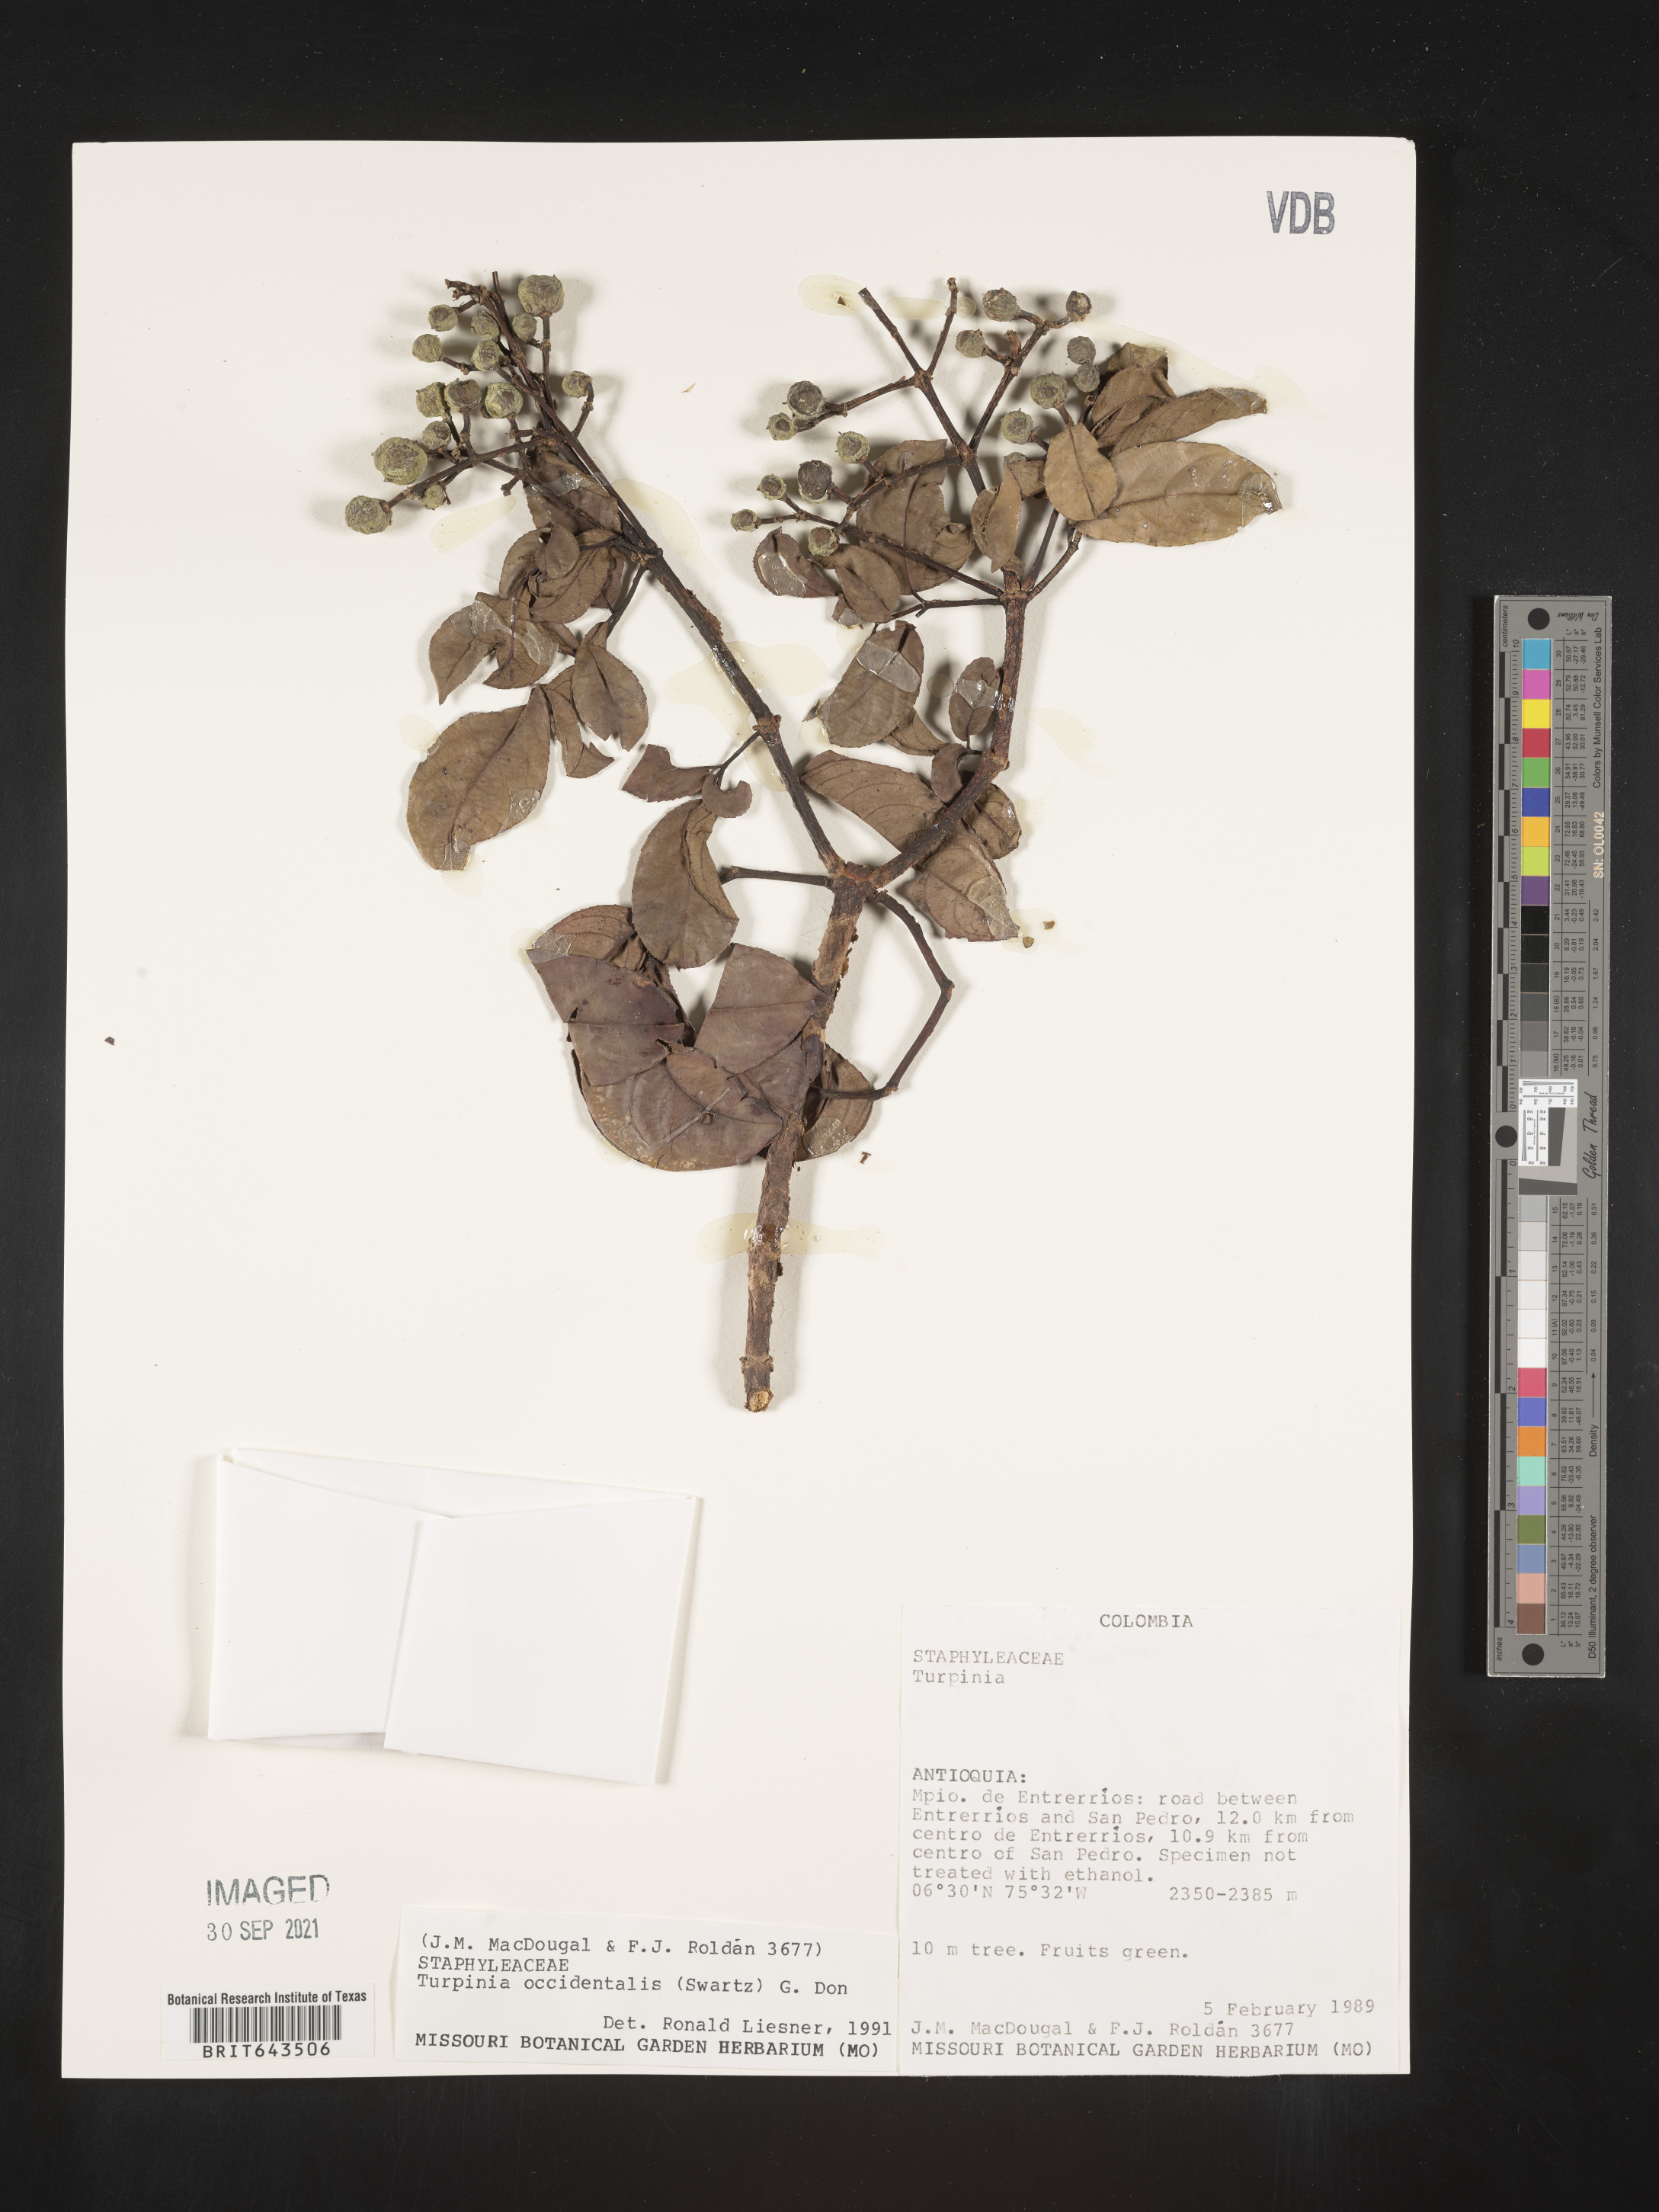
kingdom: Plantae
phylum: Tracheophyta
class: Magnoliopsida
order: Crossosomatales
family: Staphyleaceae
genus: Turpinia
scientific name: Turpinia
